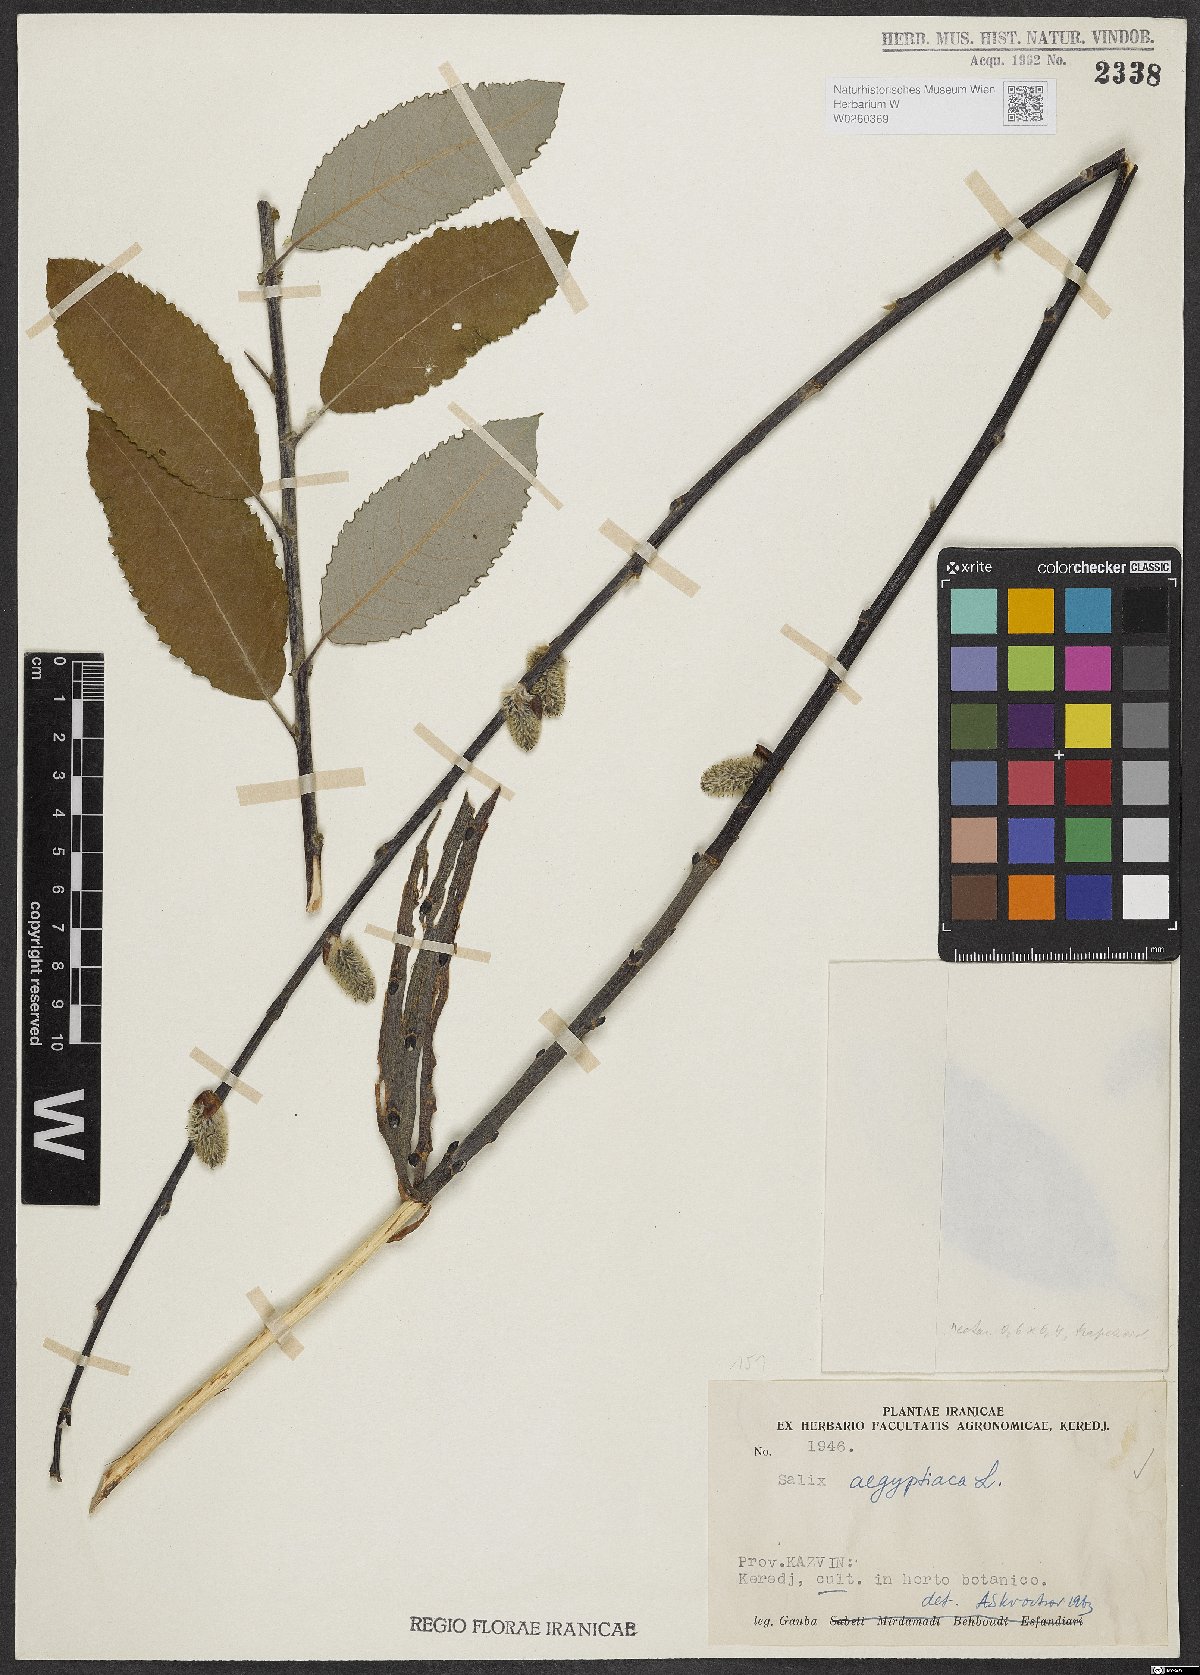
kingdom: Plantae
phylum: Tracheophyta
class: Magnoliopsida
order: Malpighiales
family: Salicaceae
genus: Salix
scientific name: Salix aegyptiaca
